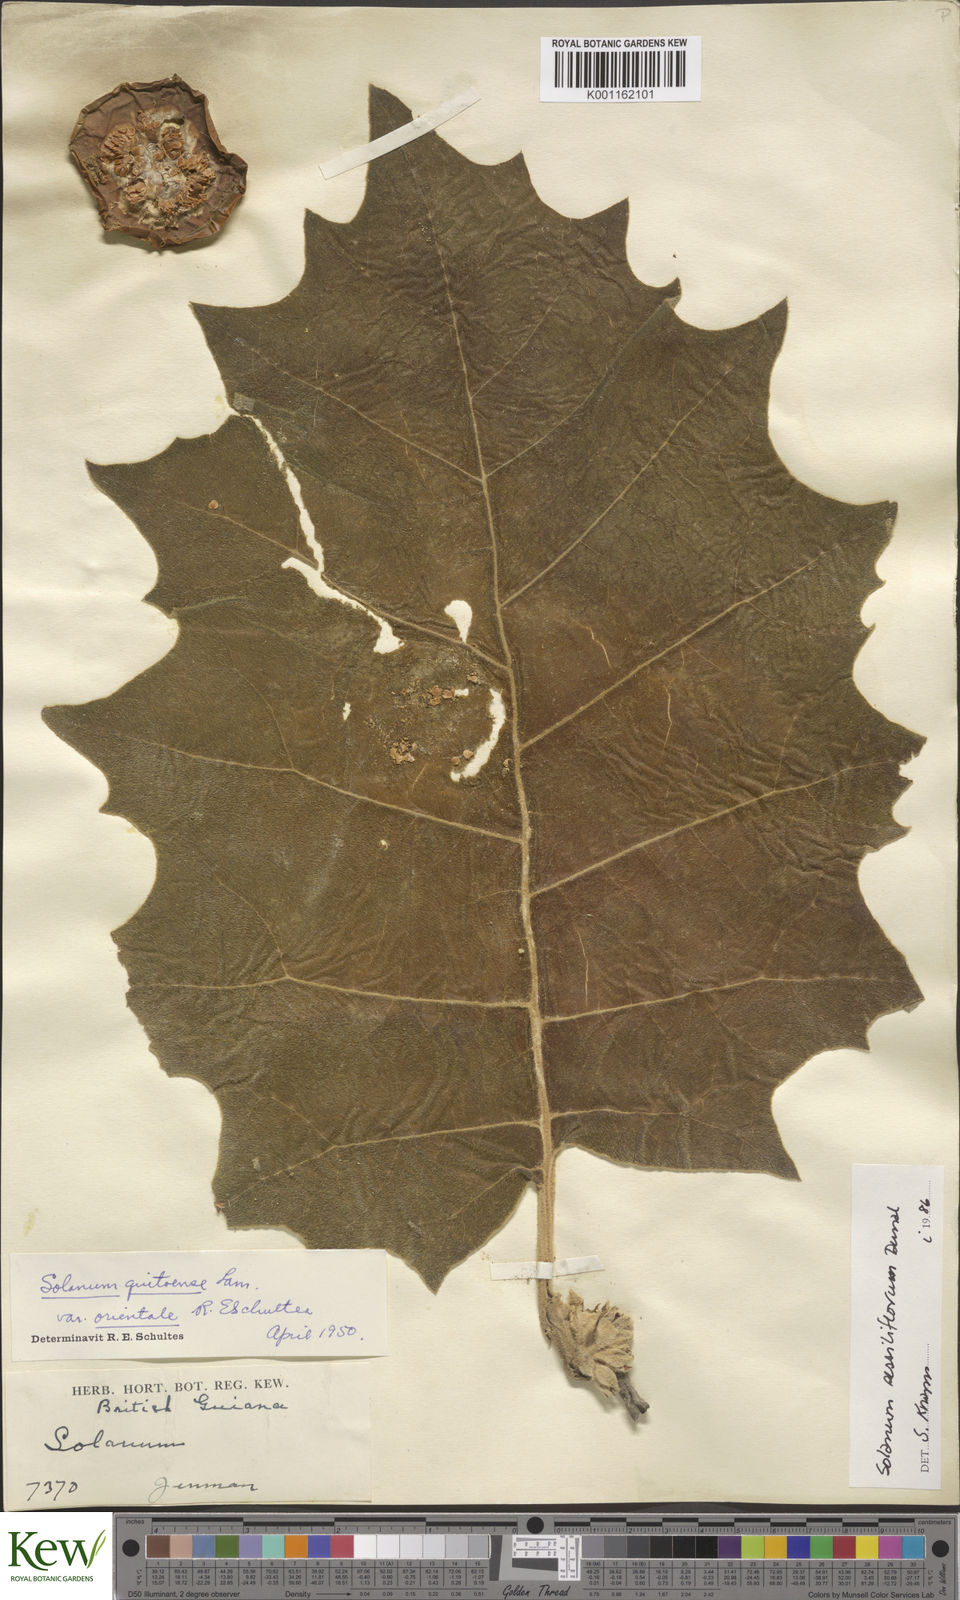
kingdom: Plantae
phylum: Tracheophyta
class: Magnoliopsida
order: Solanales
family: Solanaceae
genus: Solanum
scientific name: Solanum sessiliflorum
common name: Orinoco-apple
